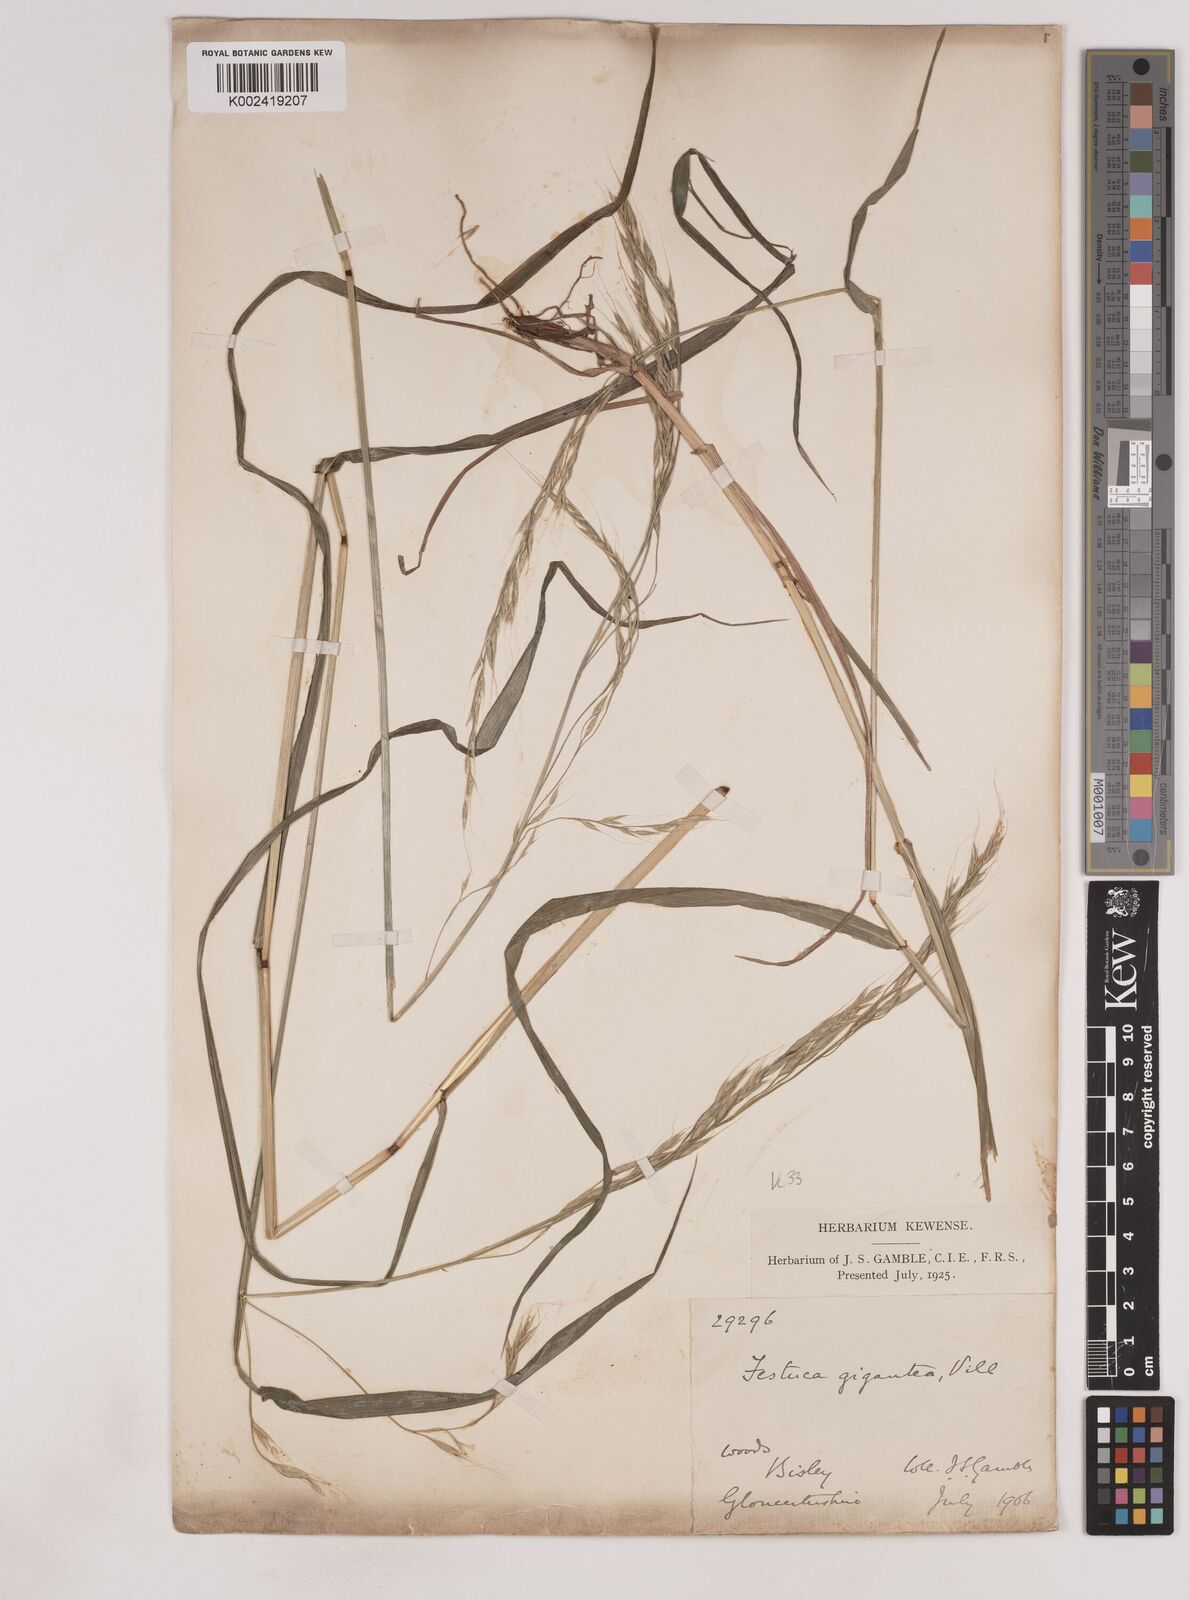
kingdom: Plantae
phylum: Tracheophyta
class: Liliopsida
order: Poales
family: Poaceae
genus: Lolium
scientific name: Lolium giganteum
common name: Giant fescue
